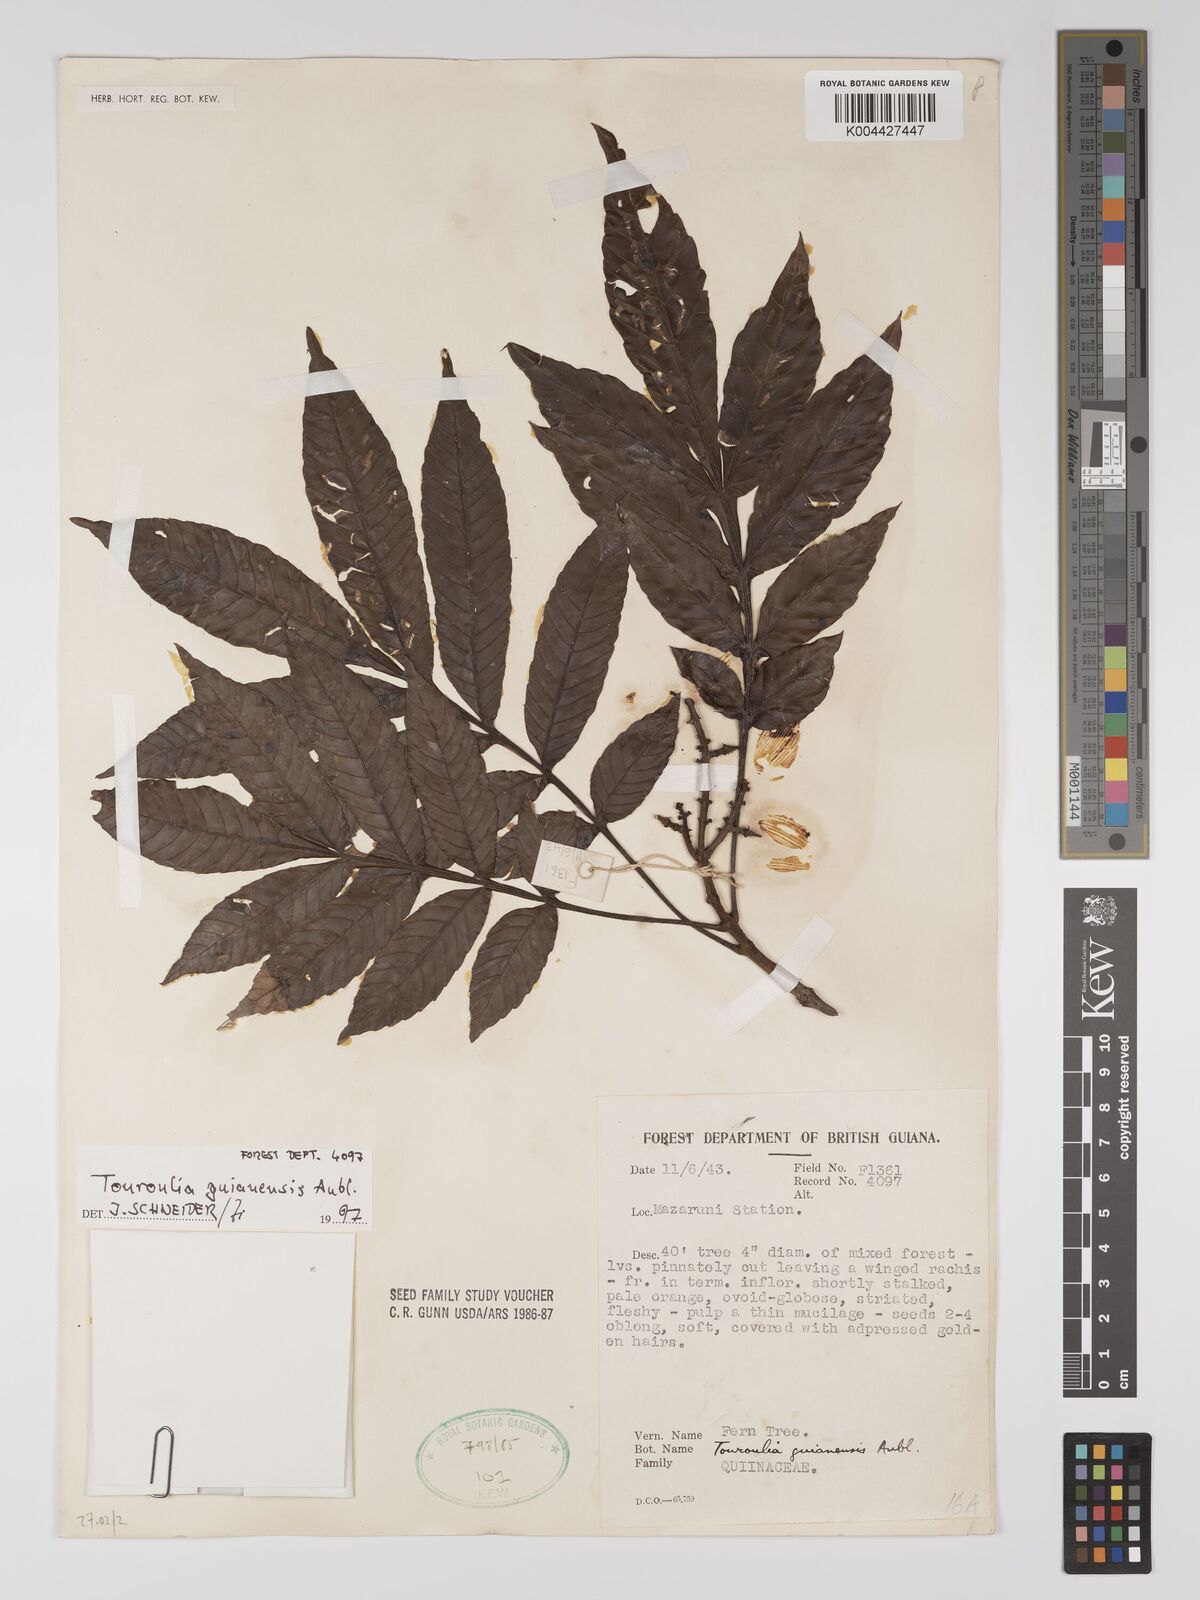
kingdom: Plantae
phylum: Tracheophyta
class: Magnoliopsida
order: Malpighiales
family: Quiinaceae
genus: Touroulia
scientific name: Touroulia guianensis
